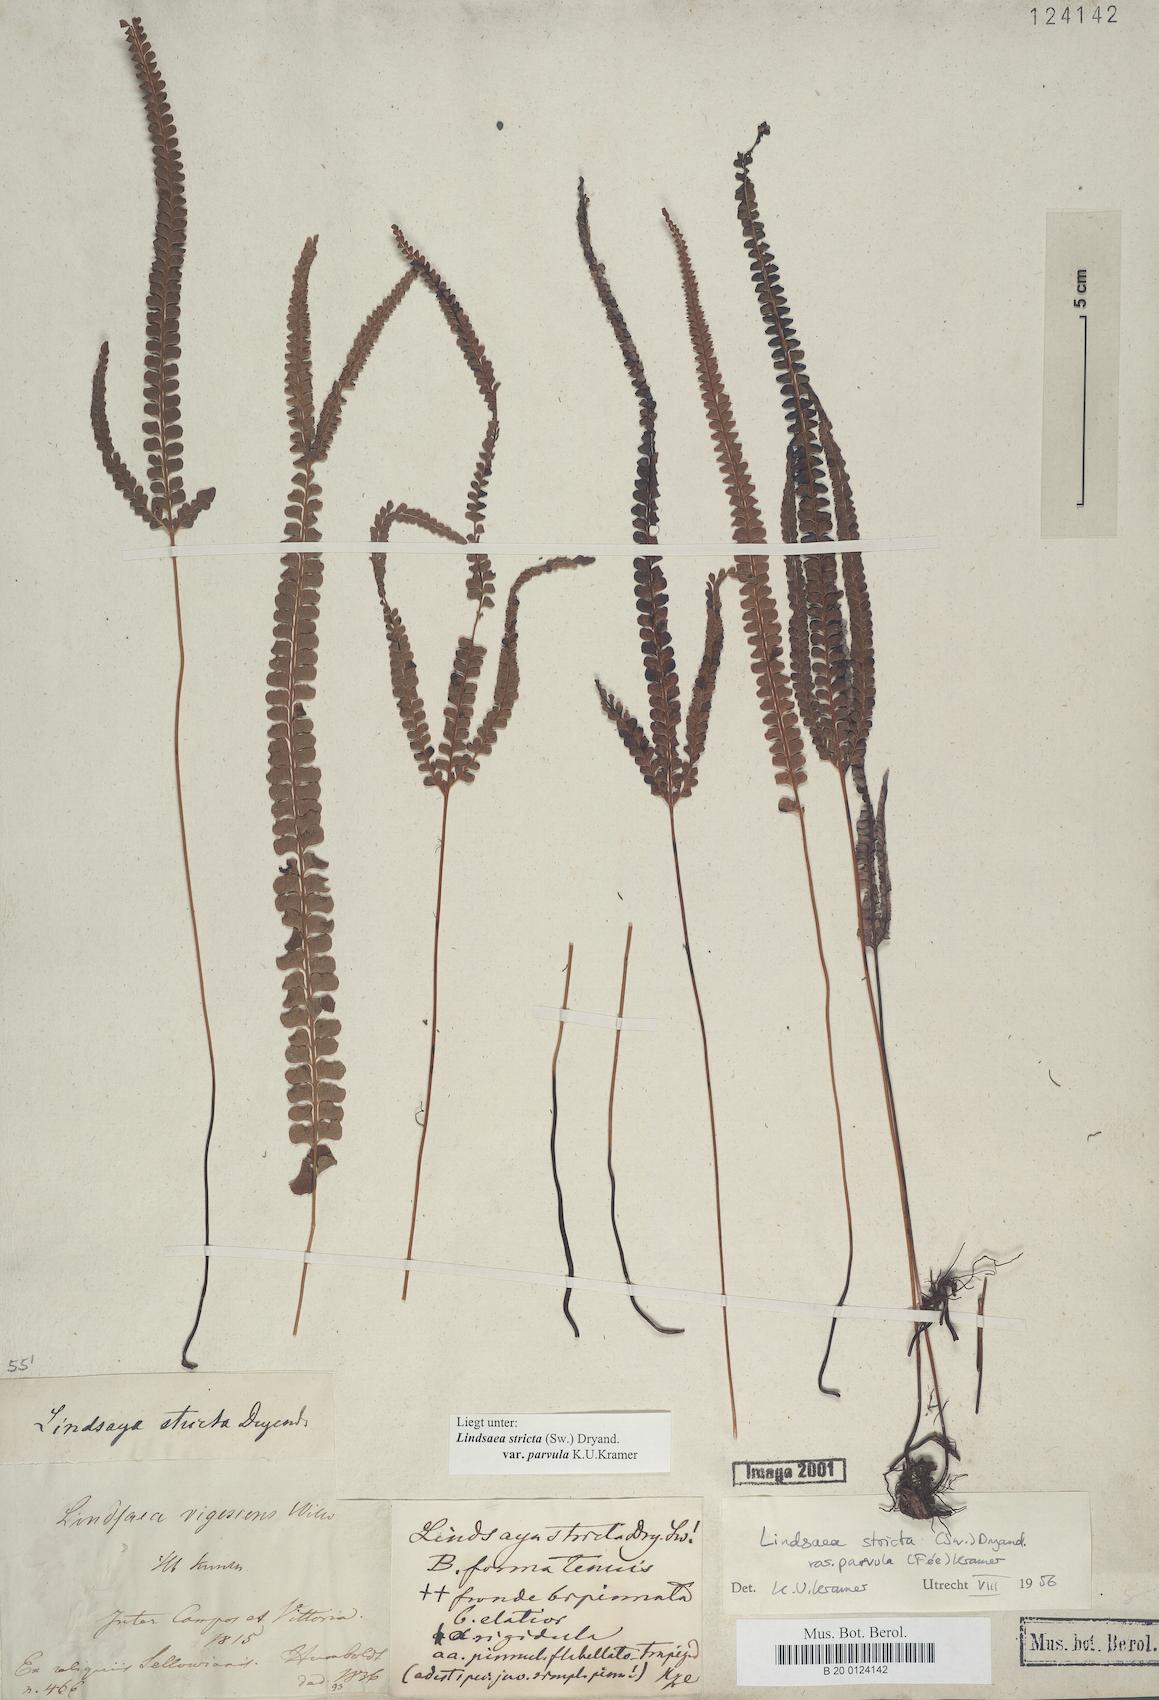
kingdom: Plantae
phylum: Tracheophyta
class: Polypodiopsida
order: Polypodiales
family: Lindsaeaceae
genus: Lindsaea
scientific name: Lindsaea stricta
